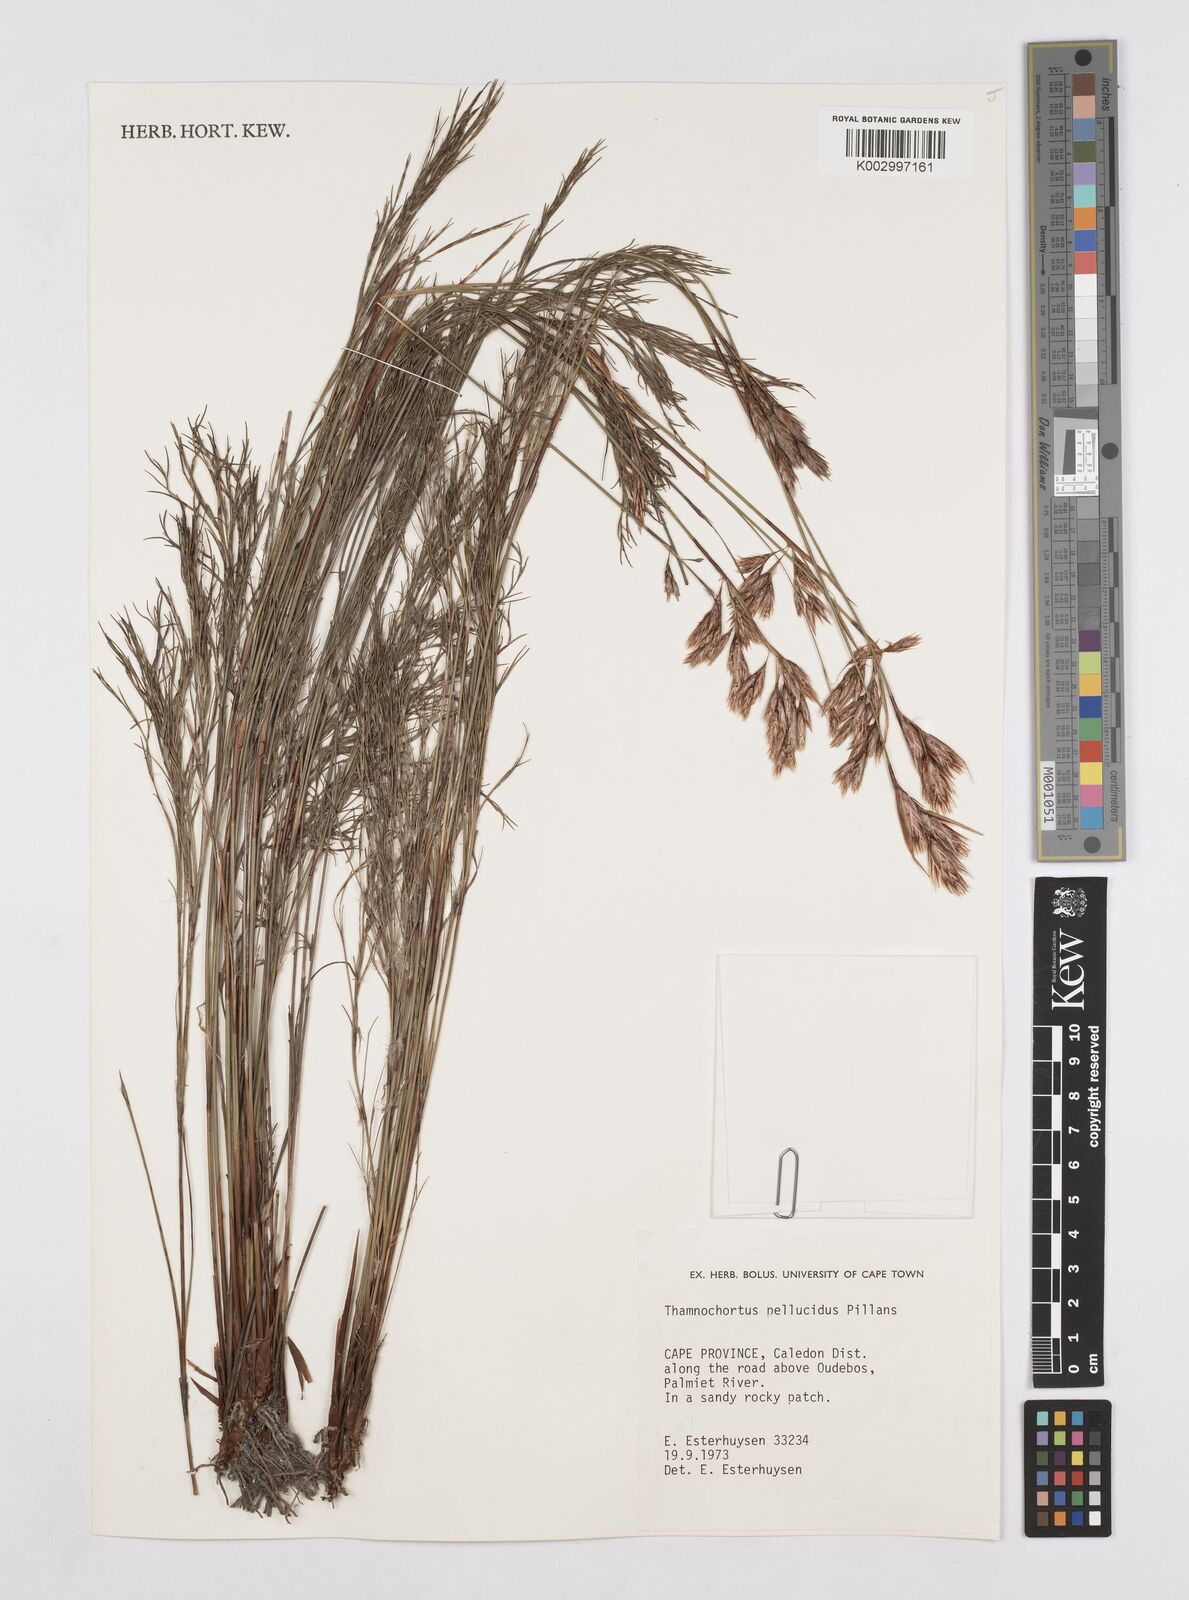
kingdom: Plantae
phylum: Tracheophyta
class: Liliopsida
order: Poales
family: Restionaceae
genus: Thamnochortus
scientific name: Thamnochortus pellucidus
